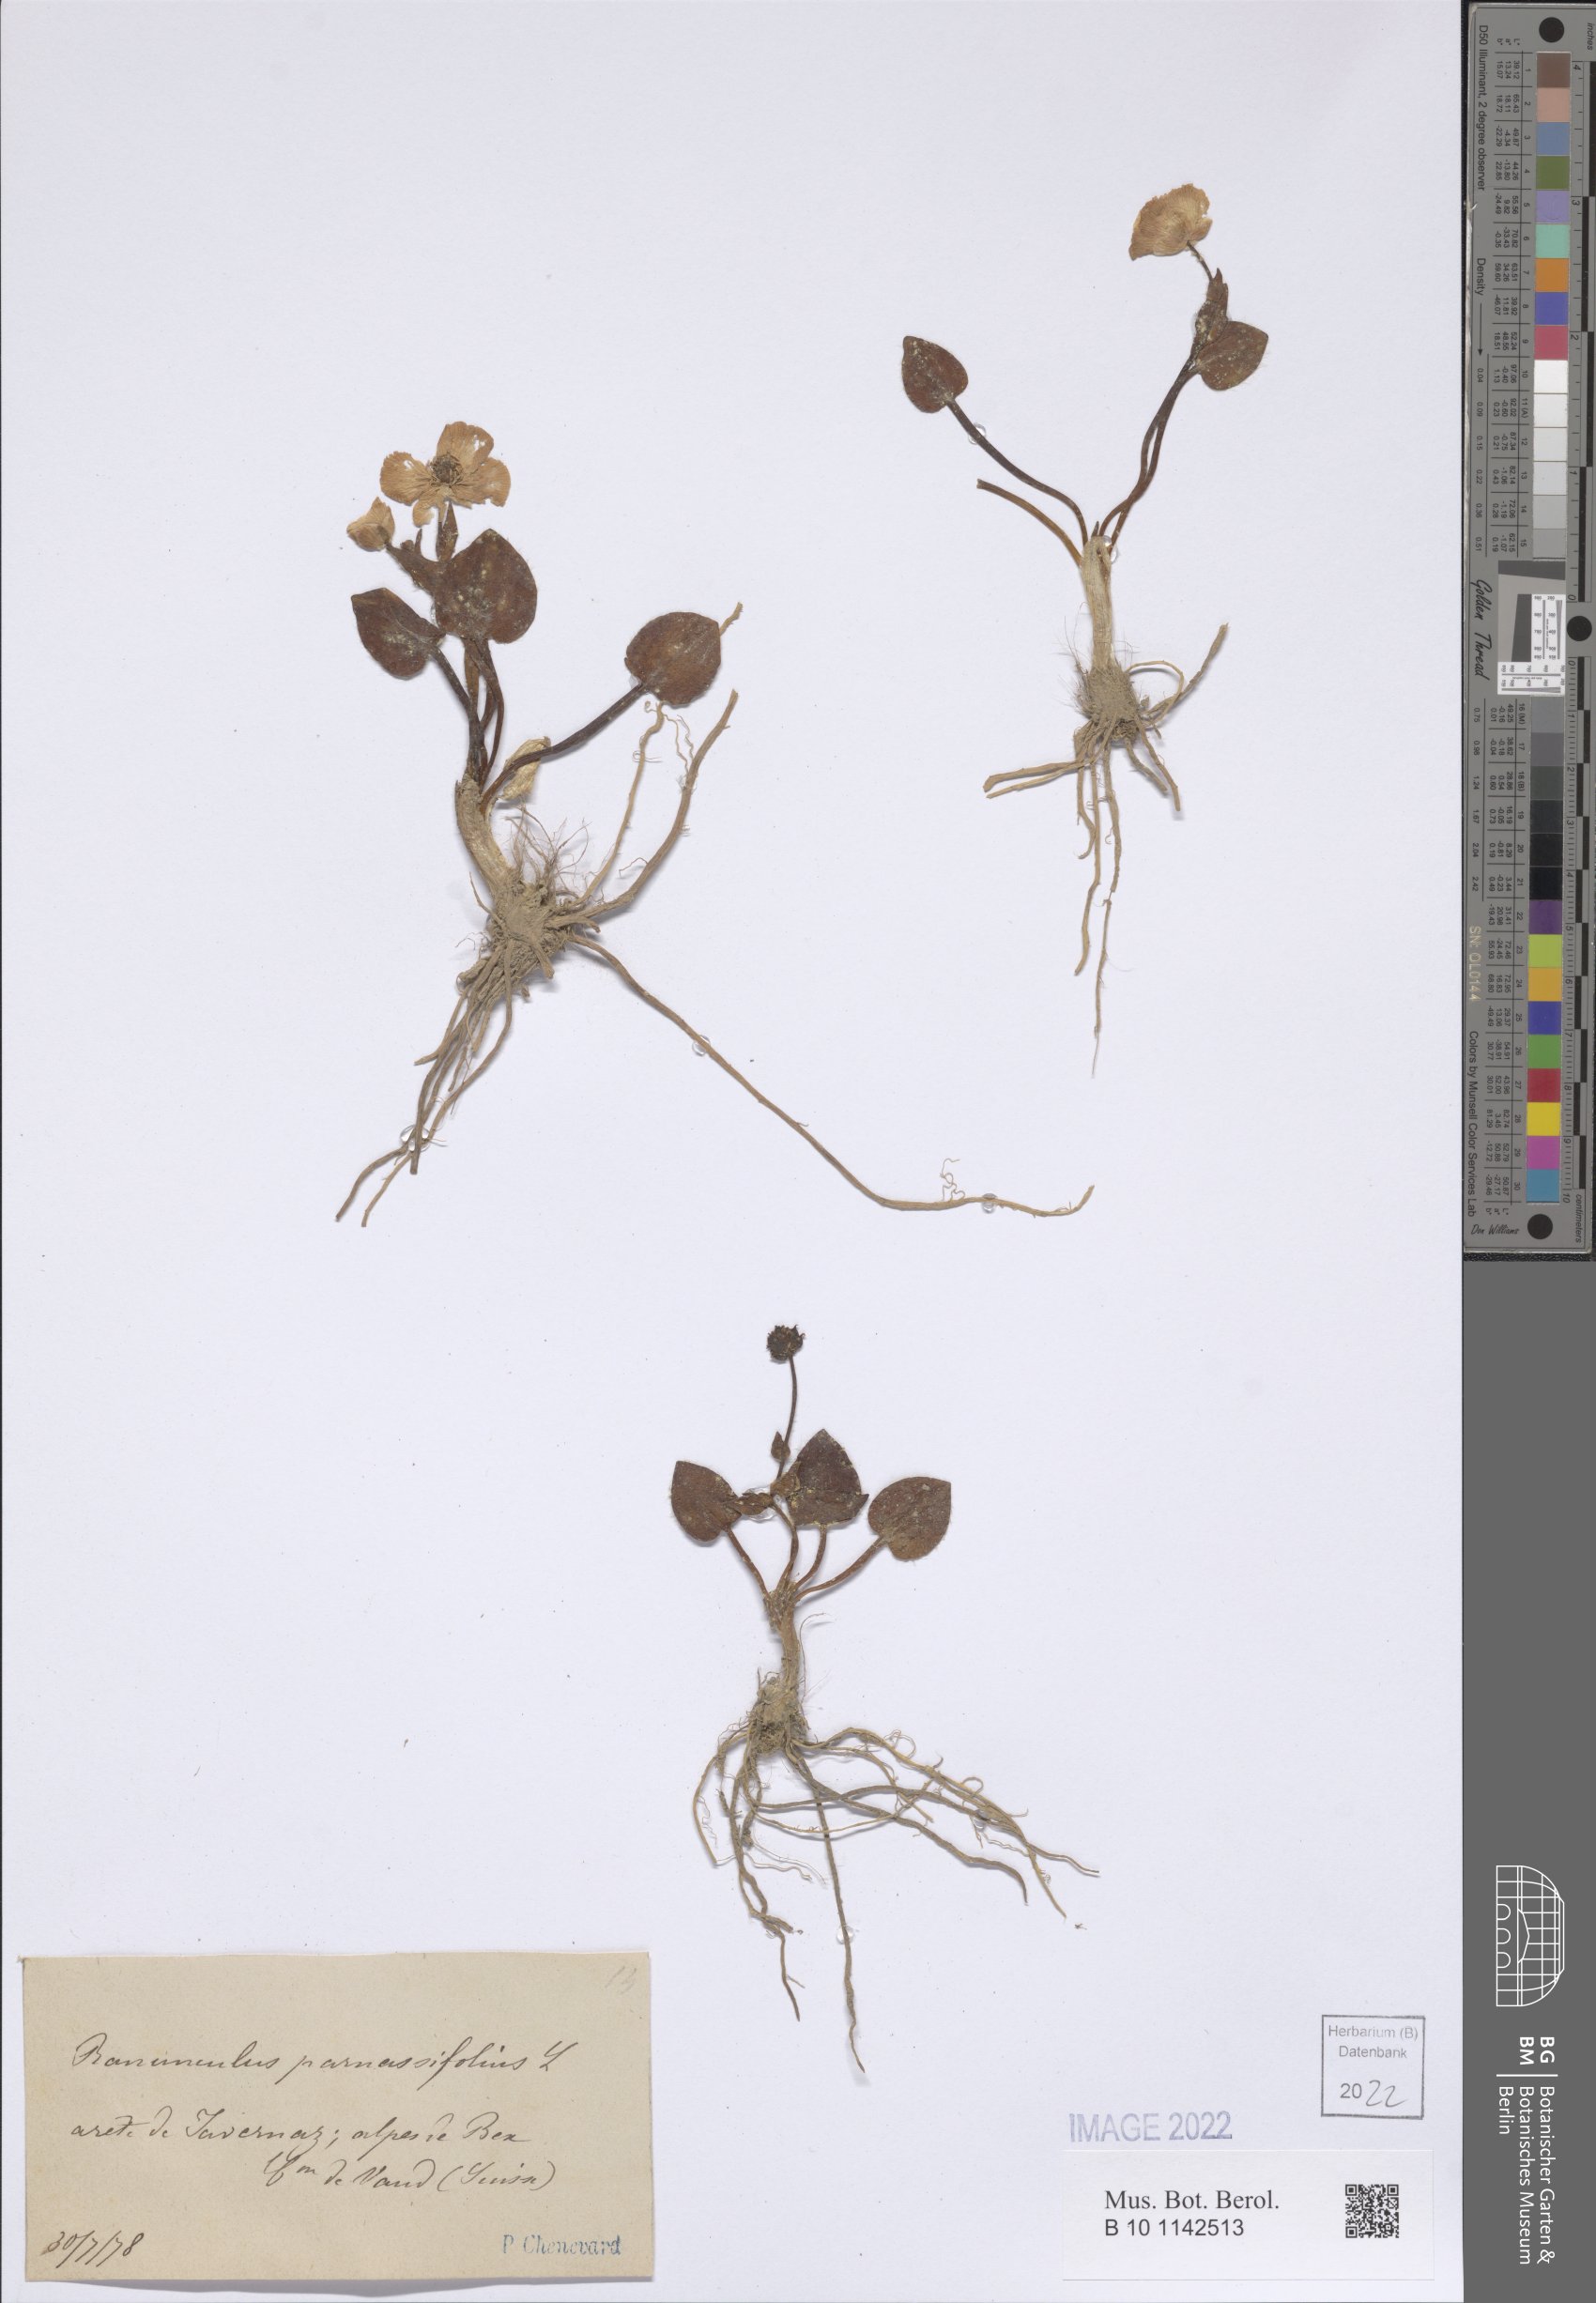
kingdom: Plantae
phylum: Tracheophyta
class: Magnoliopsida
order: Ranunculales
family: Ranunculaceae
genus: Ranunculus
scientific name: Ranunculus parnassiifolius
